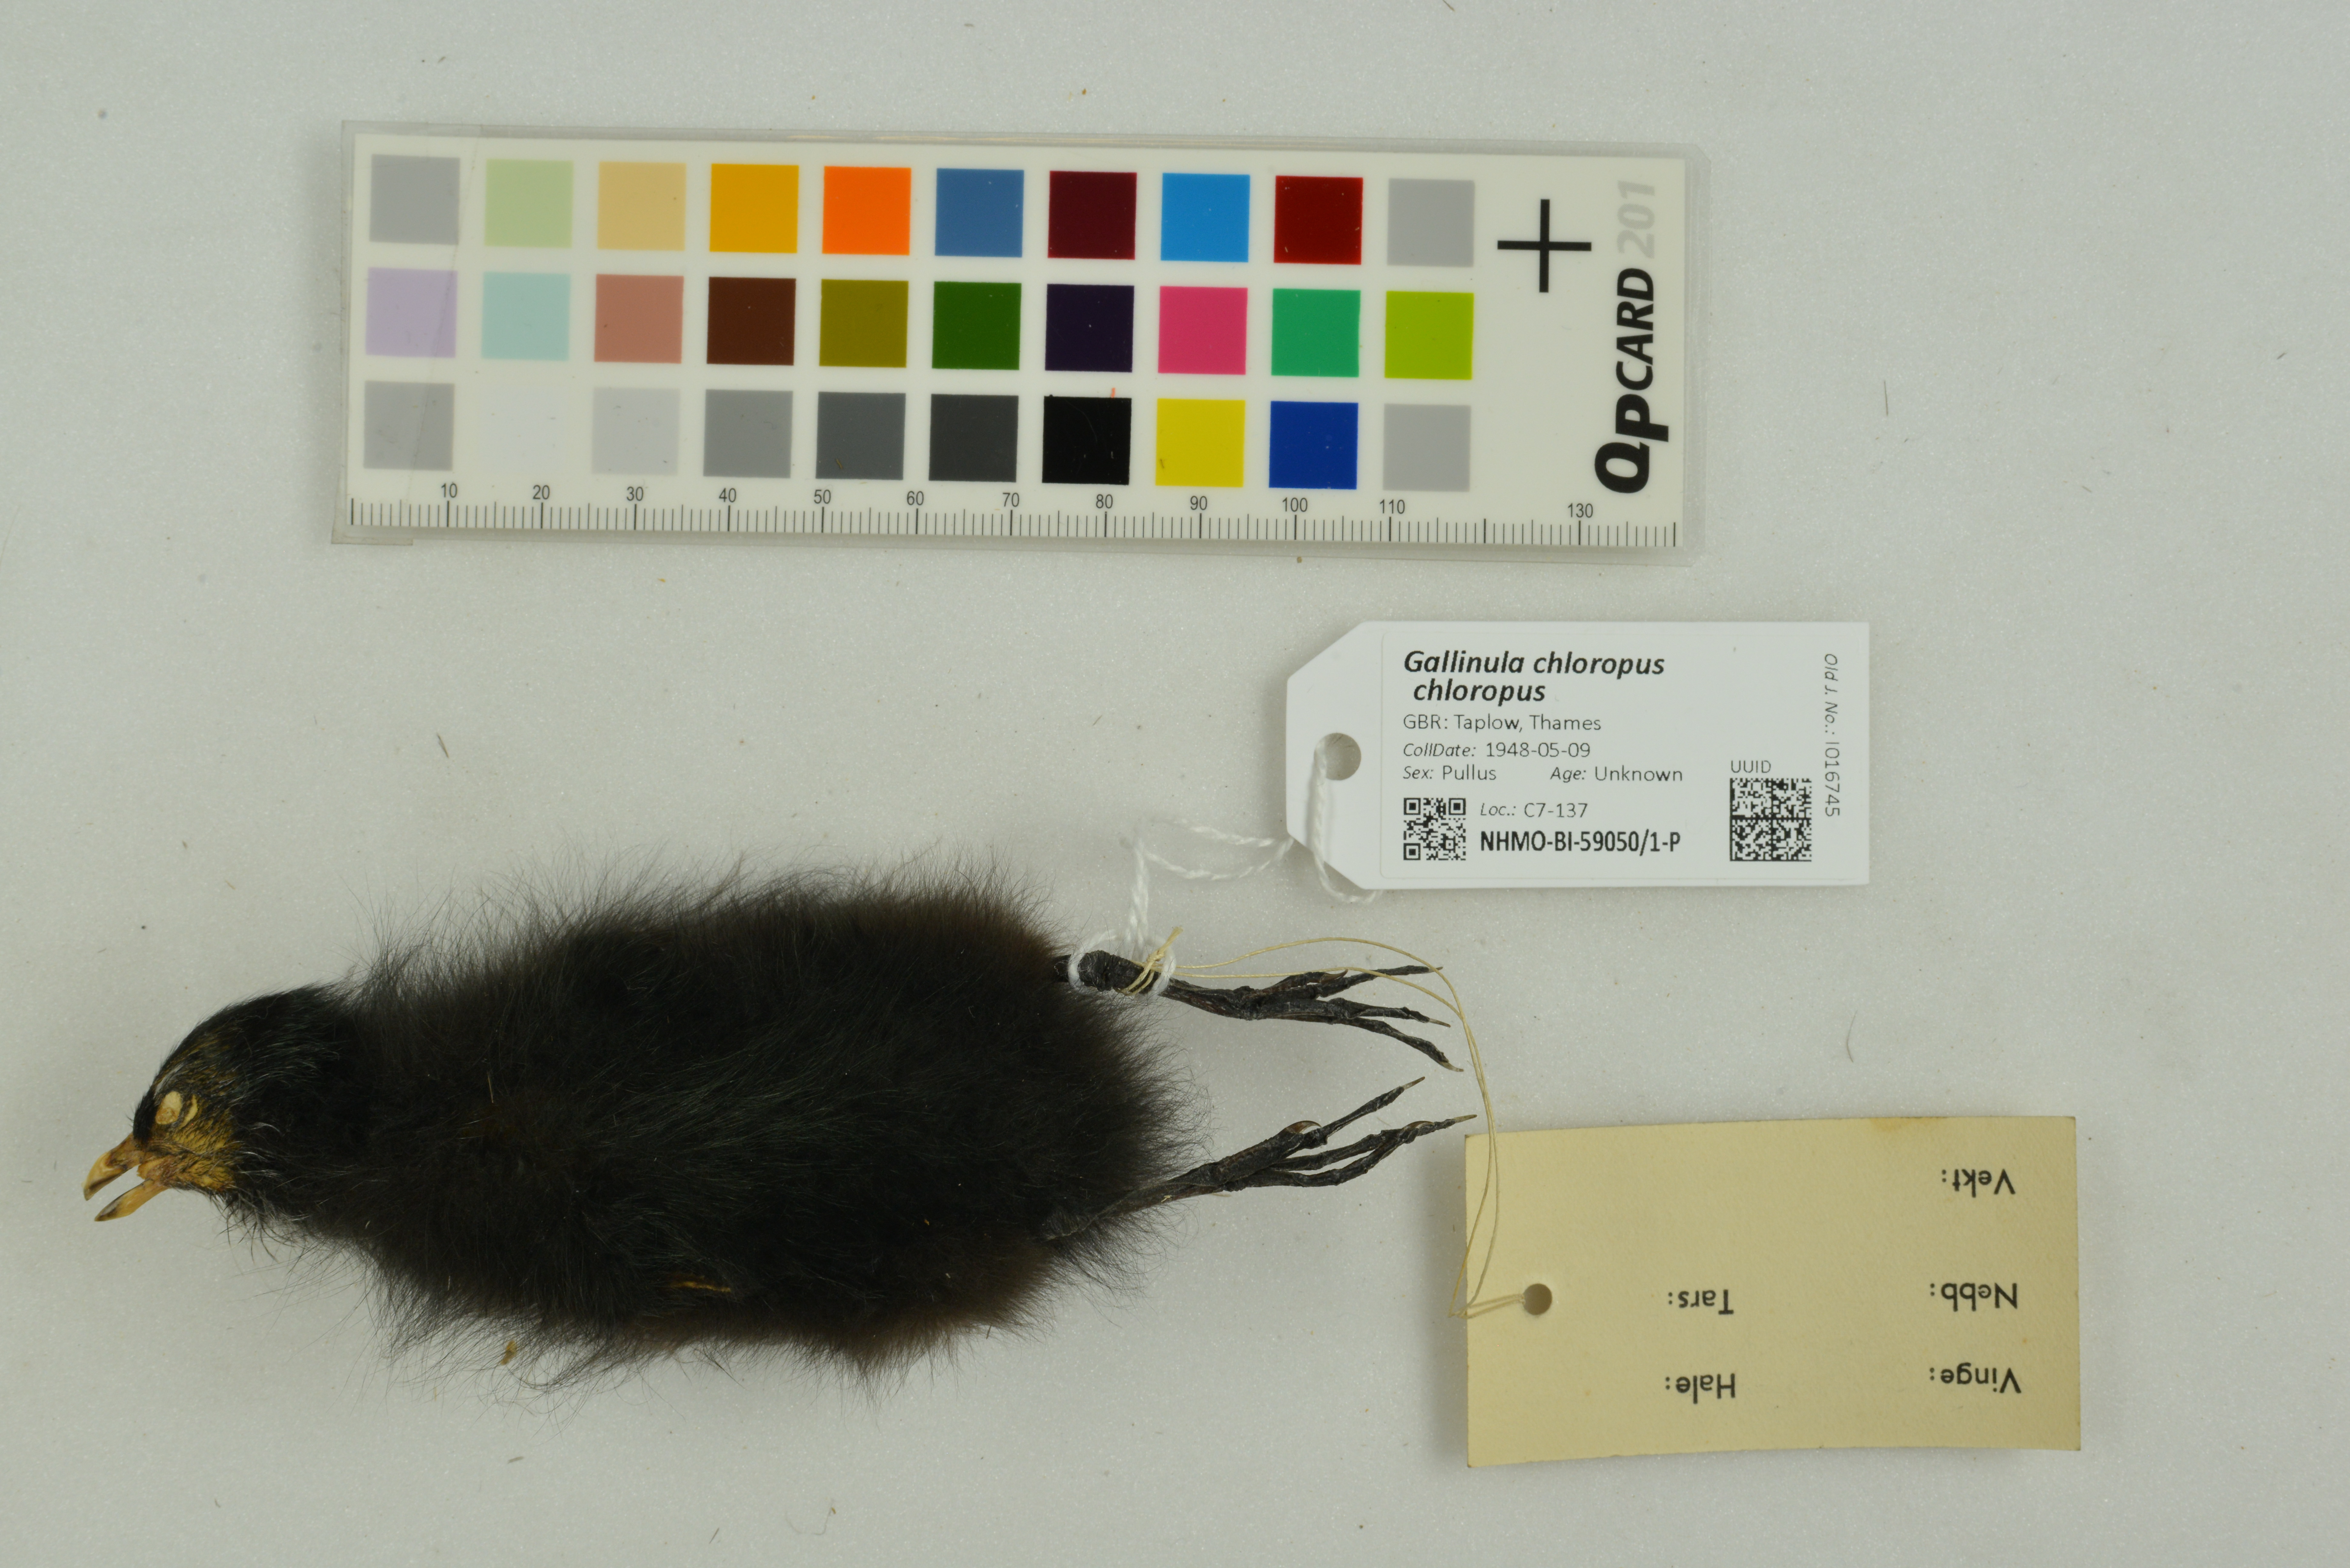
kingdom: Animalia
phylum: Chordata
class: Aves
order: Gruiformes
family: Rallidae
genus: Gallinula
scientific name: Gallinula chloropus
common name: Common moorhen
